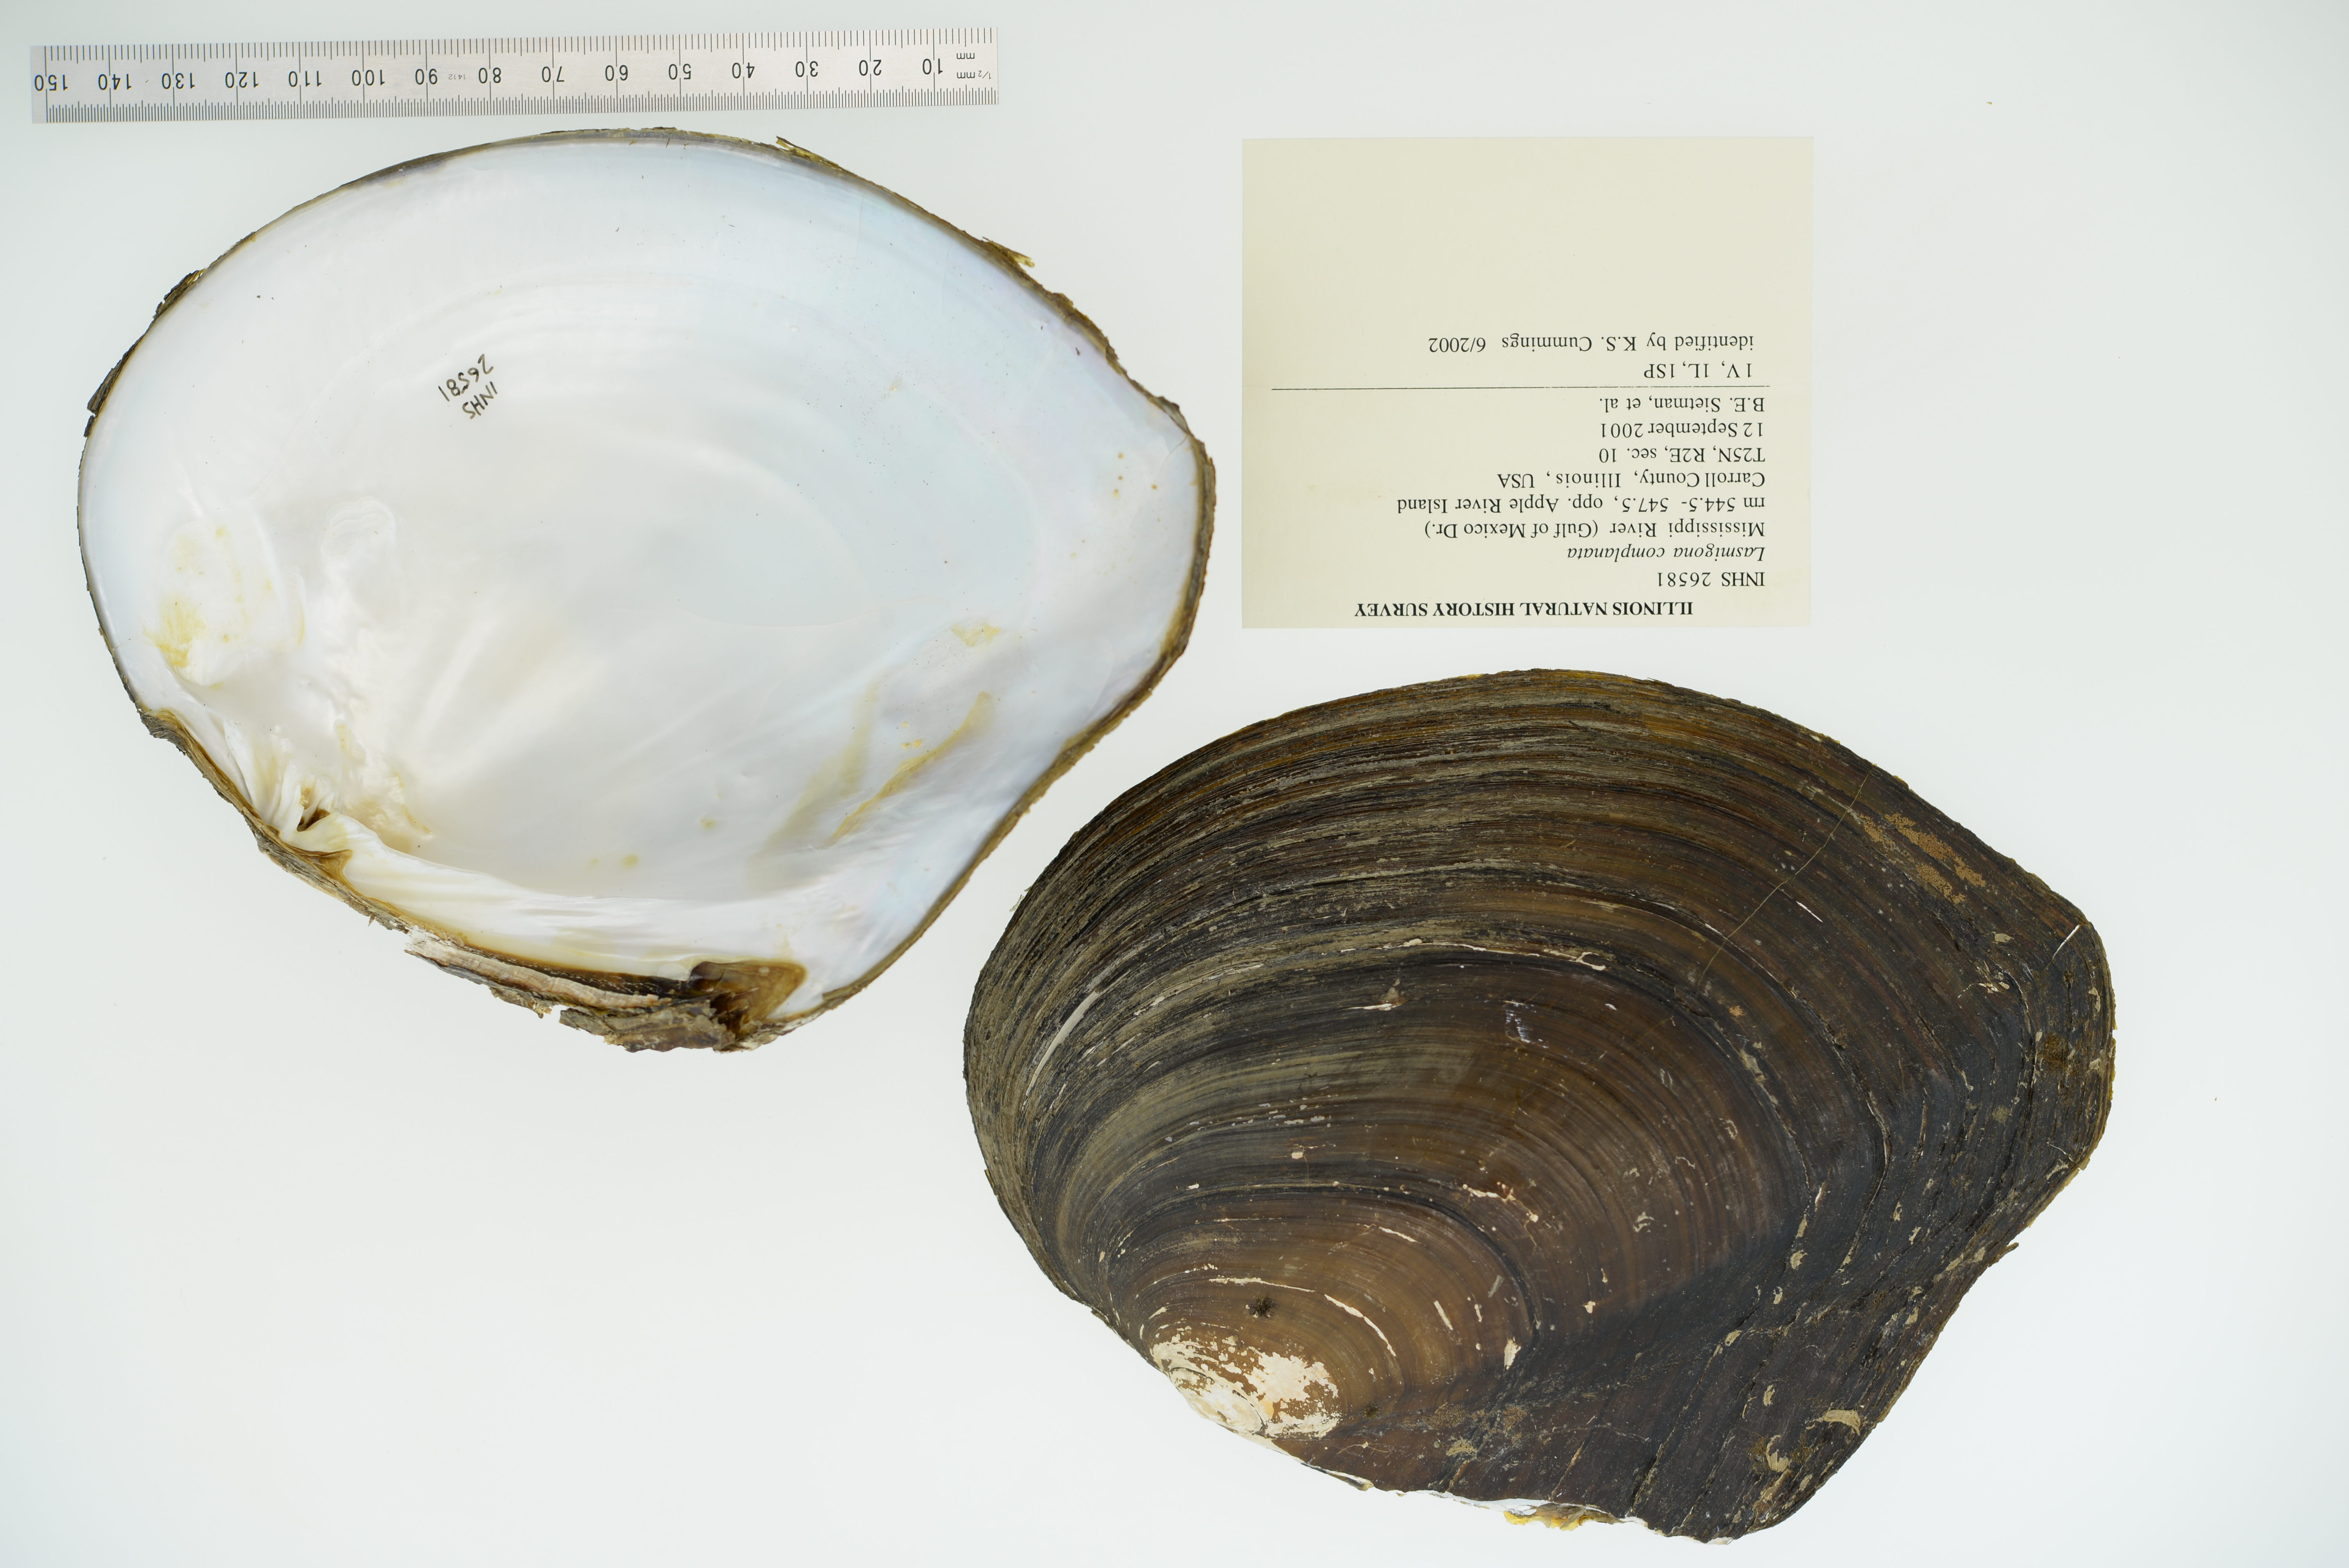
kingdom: Animalia
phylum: Mollusca
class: Bivalvia
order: Unionida
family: Unionidae
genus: Lasmigona
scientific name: Lasmigona complanata
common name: White heelsplitter
